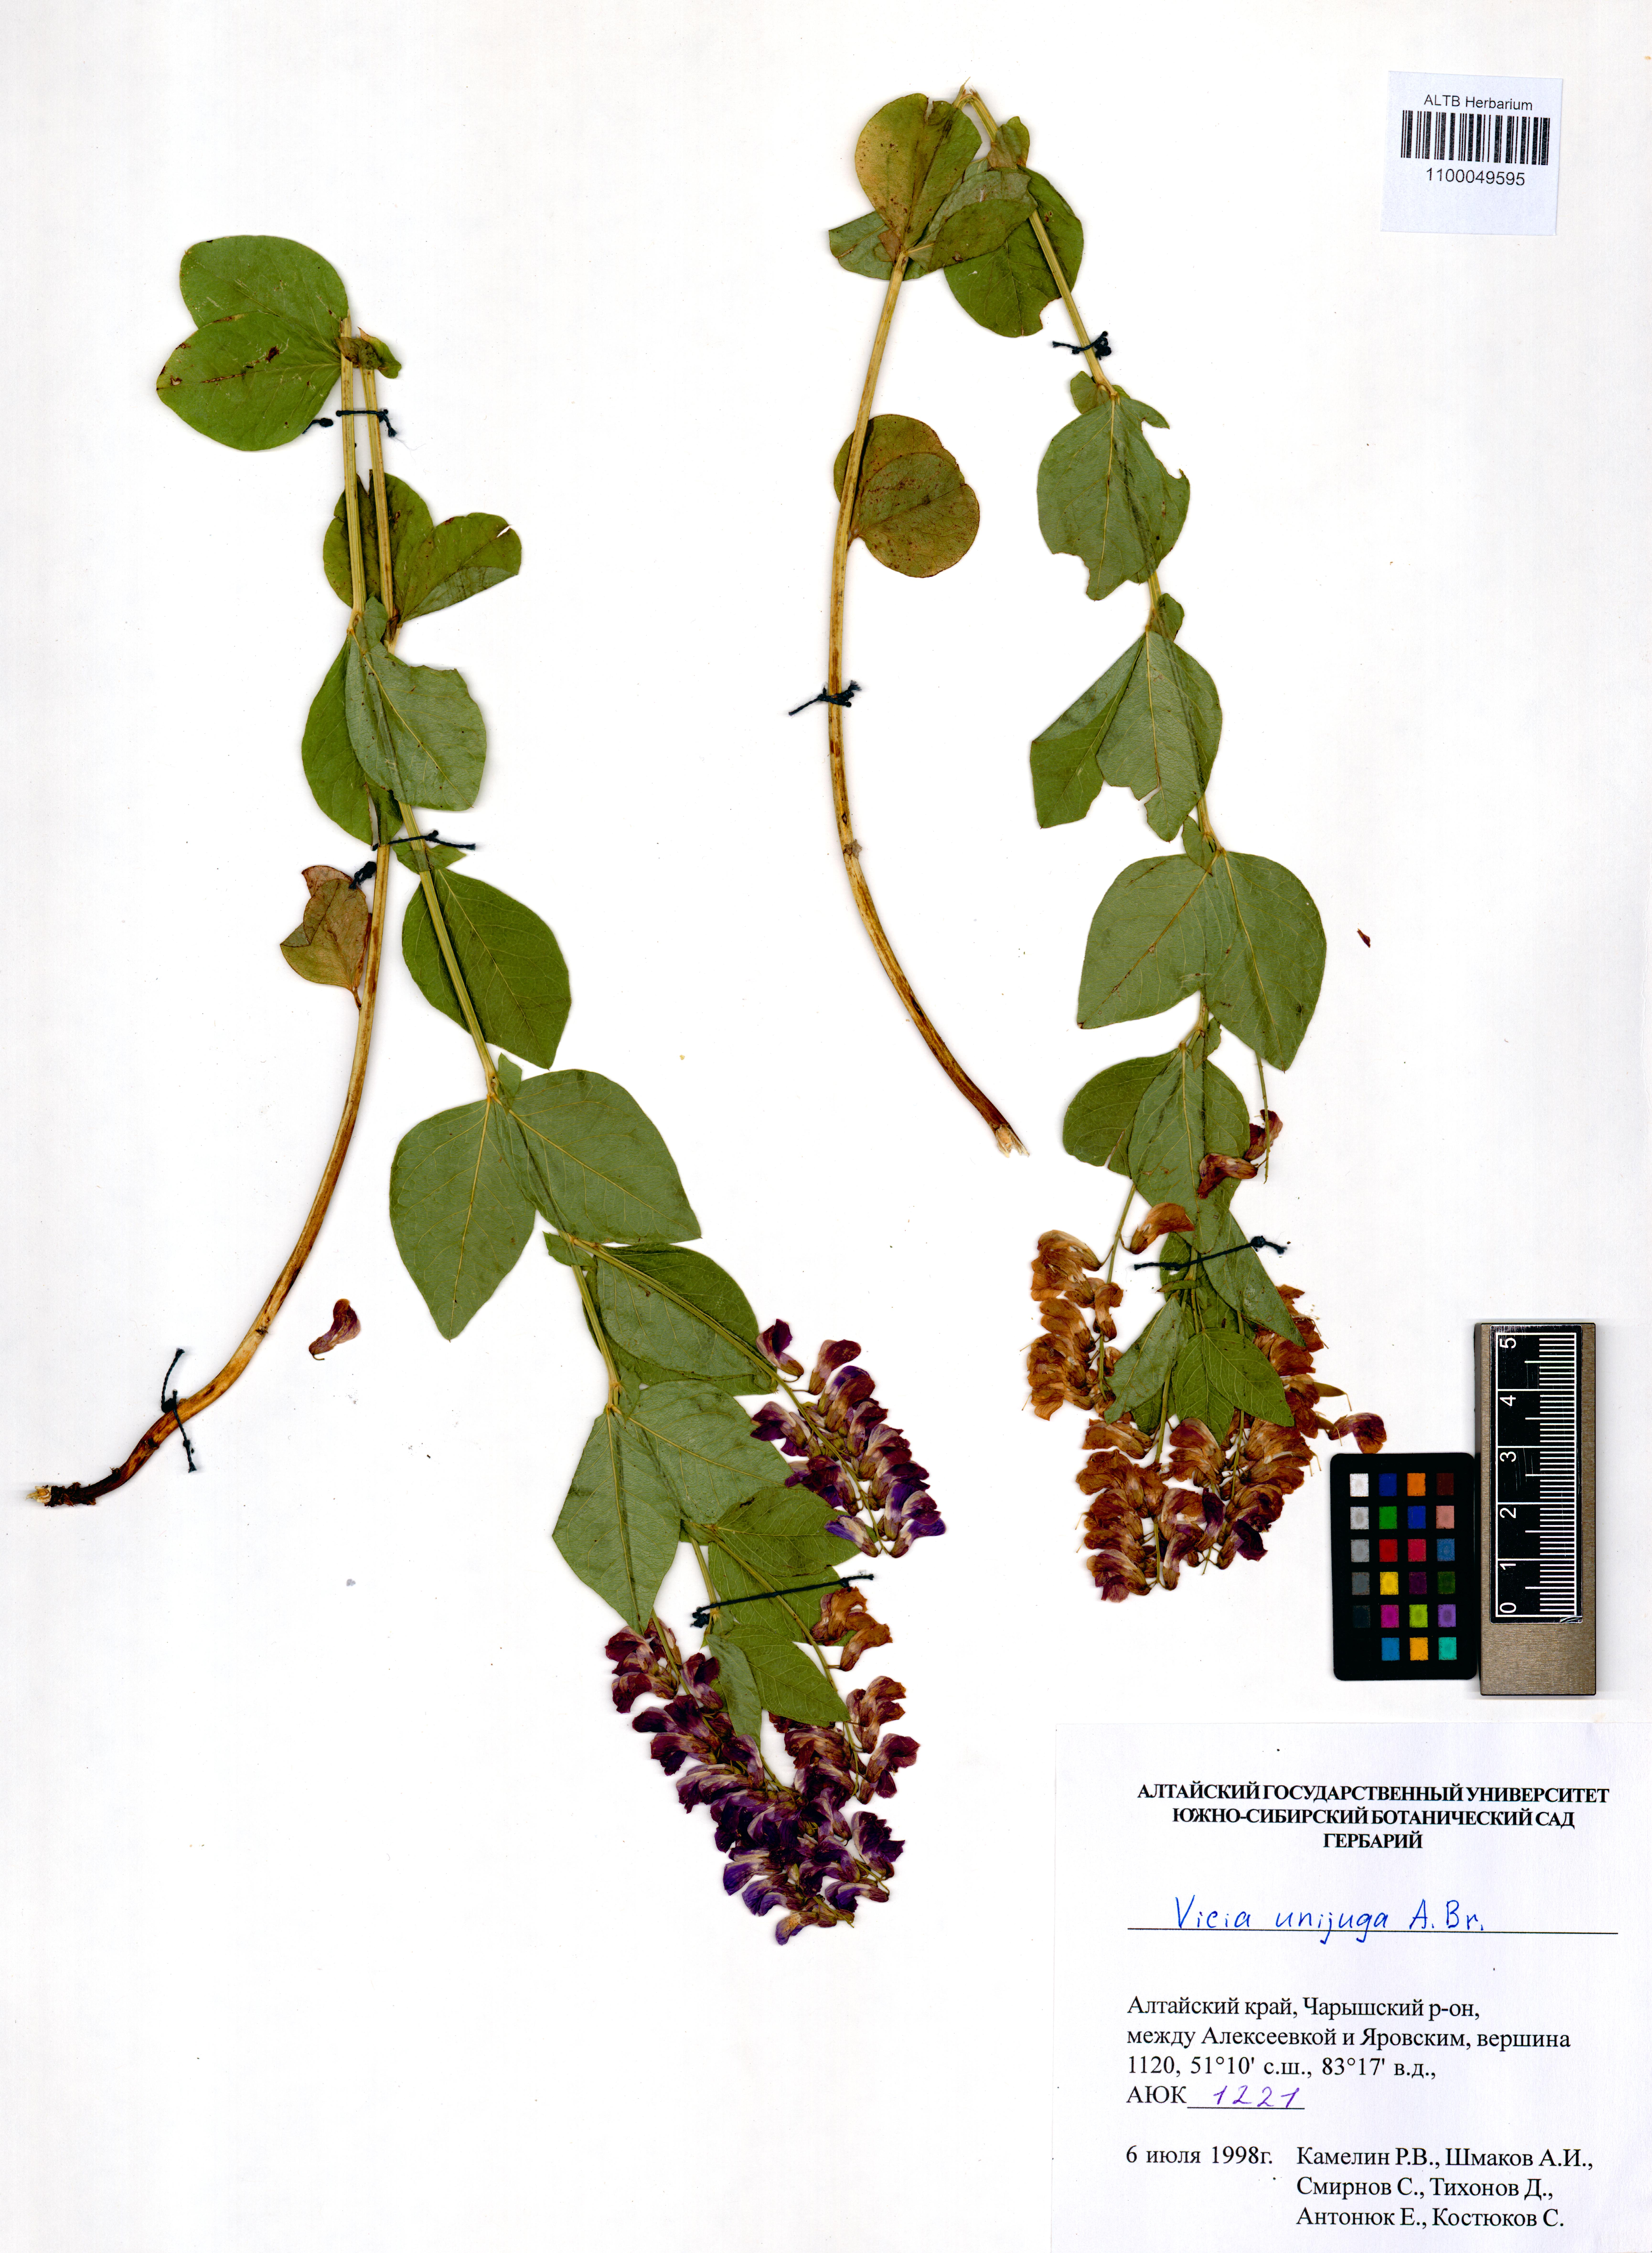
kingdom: Plantae
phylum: Tracheophyta
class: Magnoliopsida
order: Fabales
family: Fabaceae
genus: Vicia
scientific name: Vicia unijuga
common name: Two-leaf vetch
